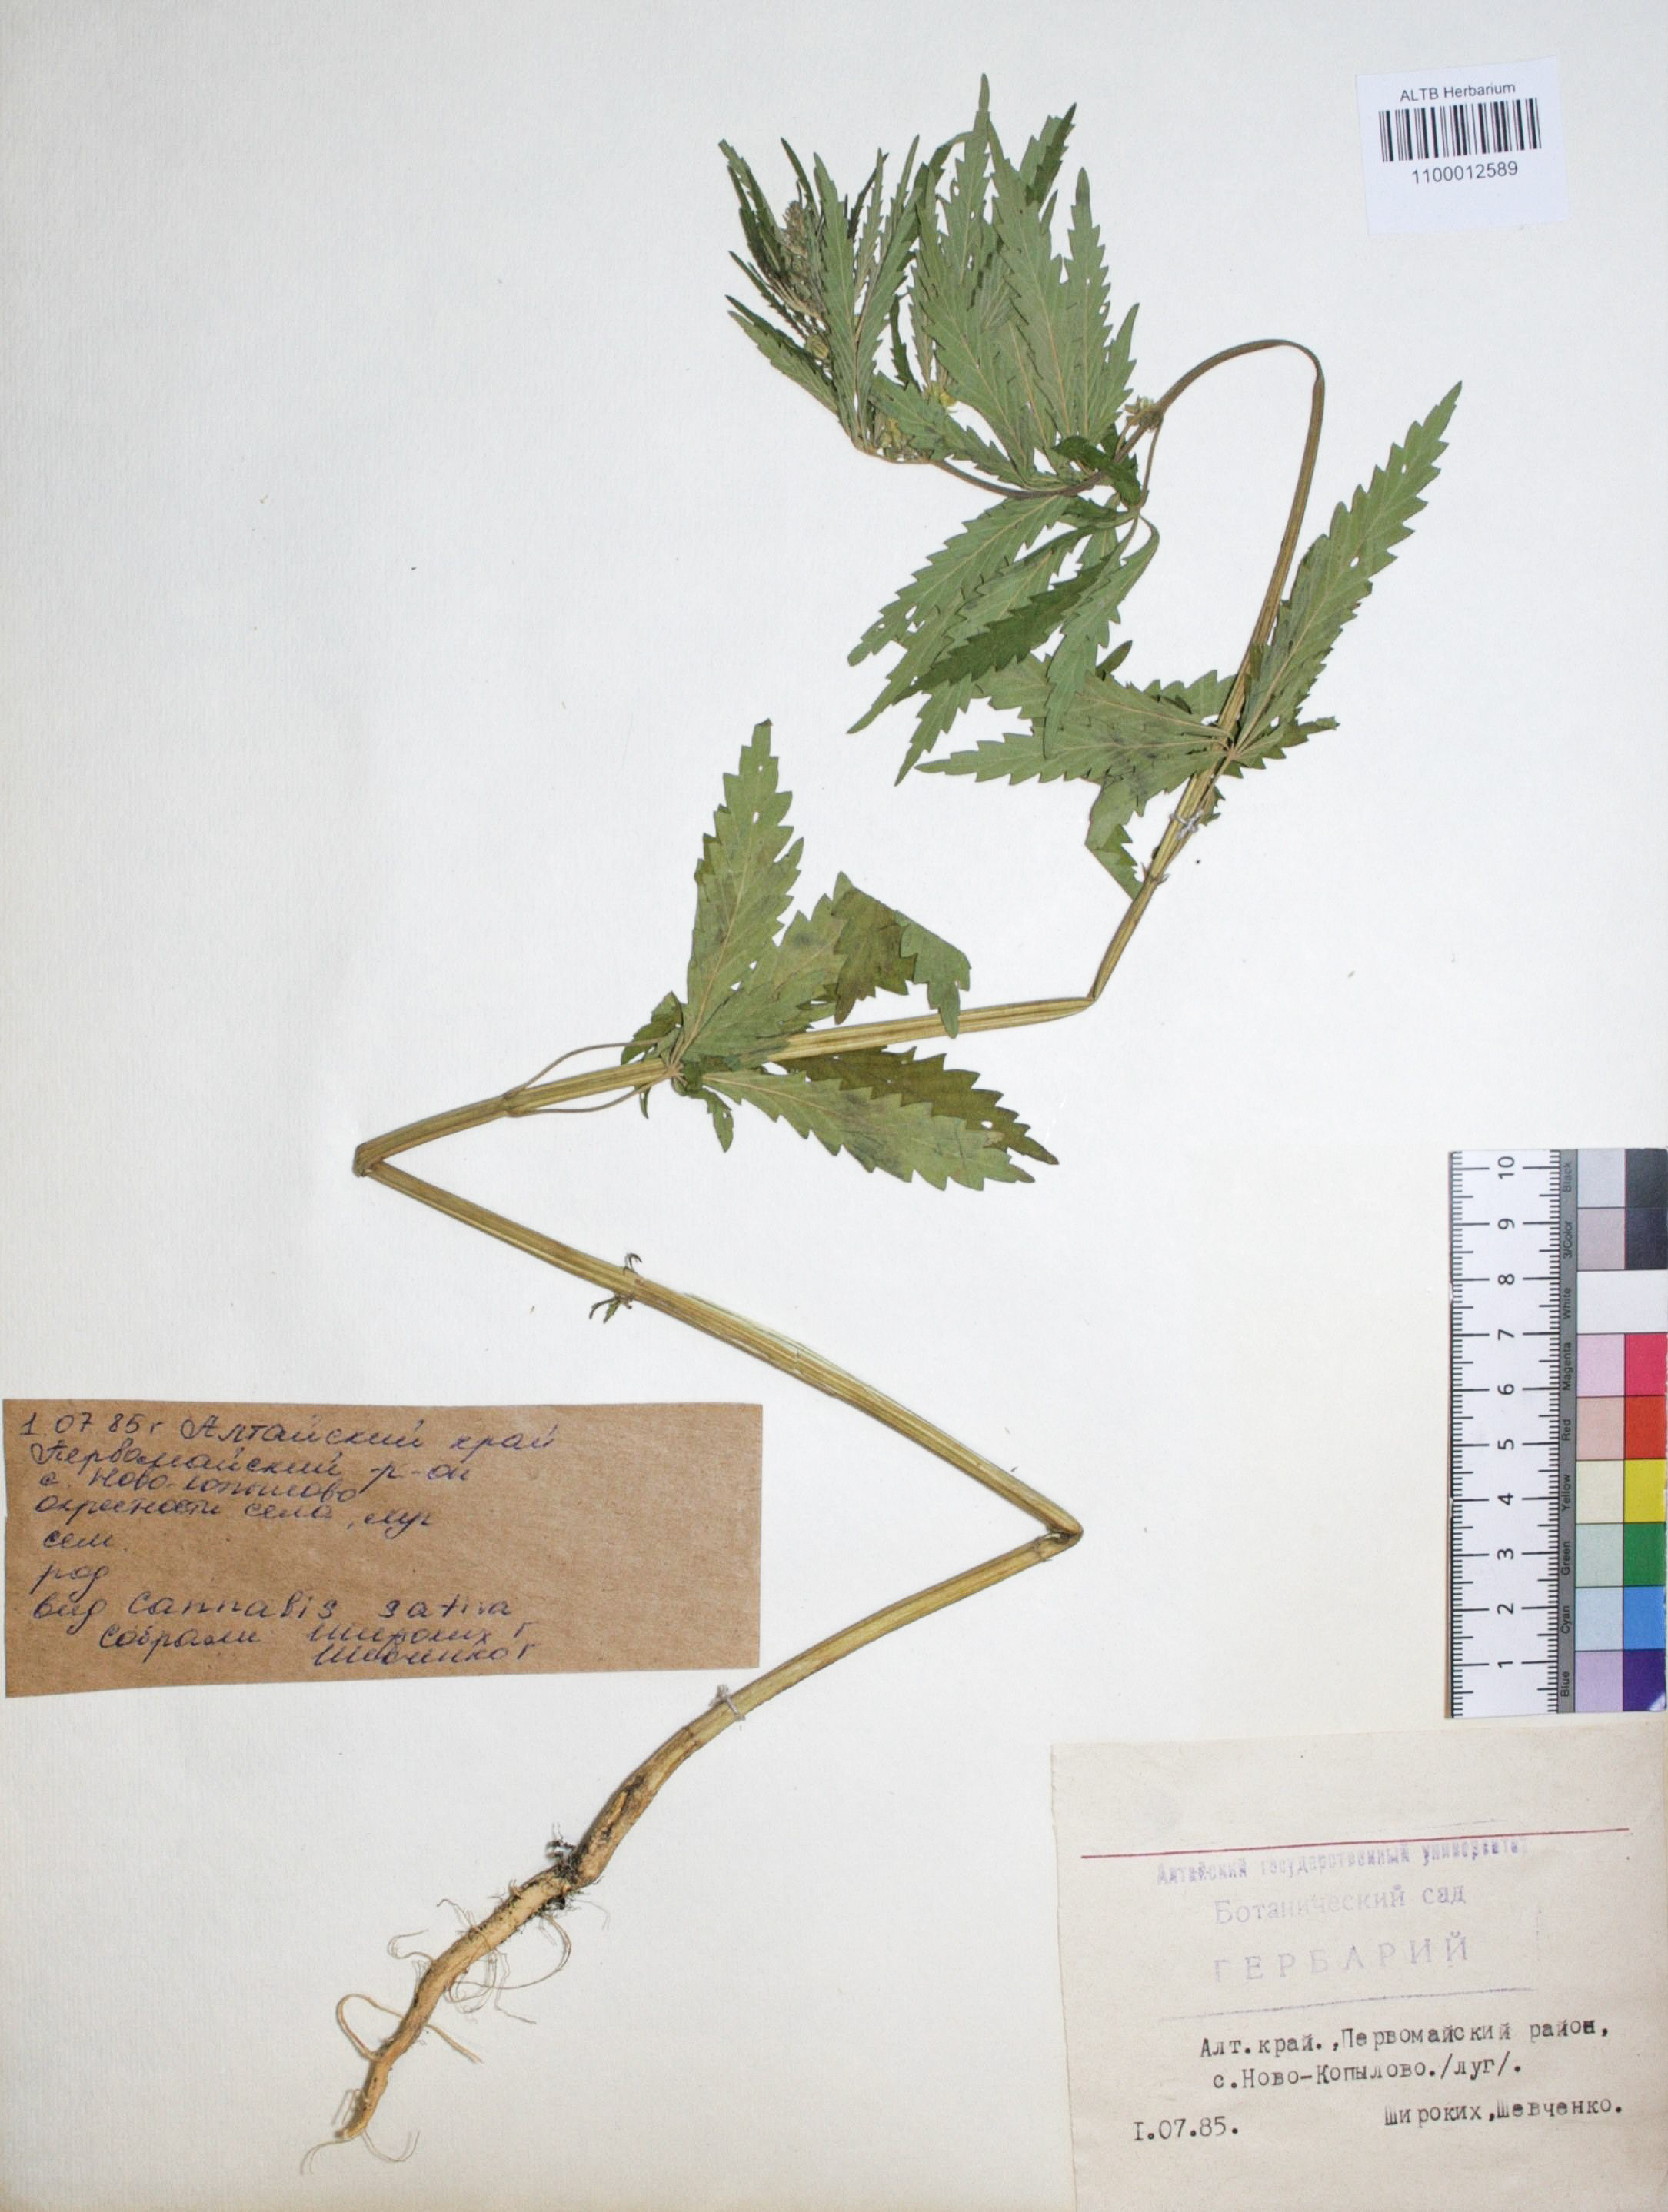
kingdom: Plantae
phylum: Tracheophyta
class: Magnoliopsida
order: Rosales
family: Cannabaceae
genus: Cannabis
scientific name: Cannabis sativa
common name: Hemp
